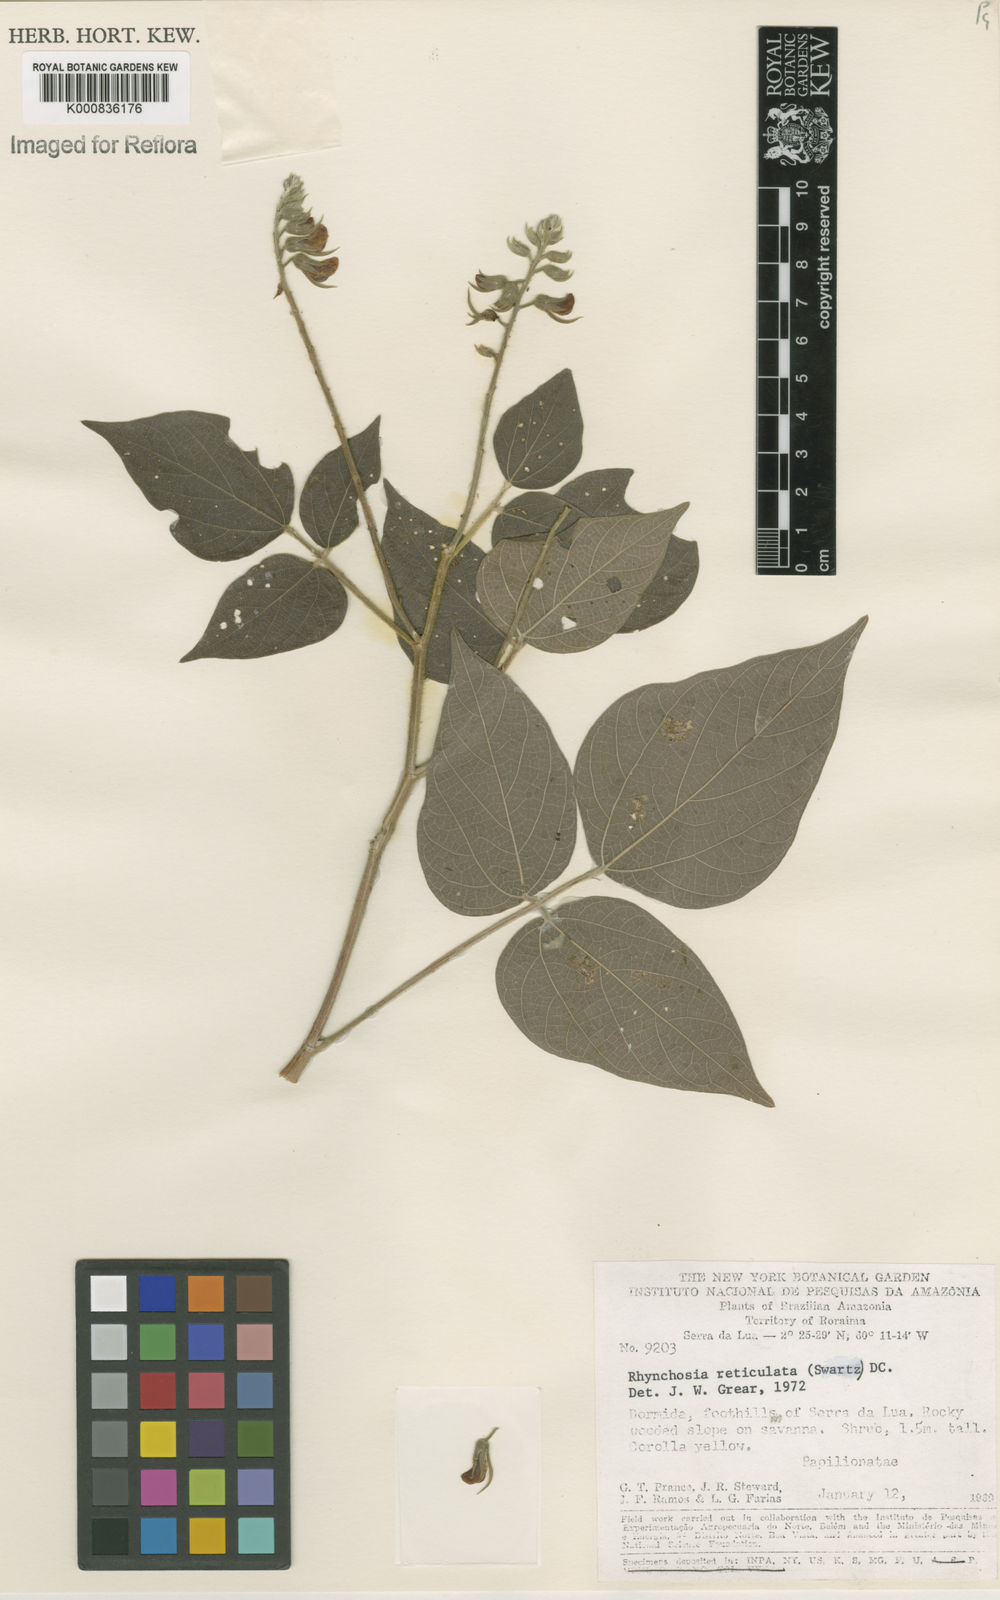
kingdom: Plantae
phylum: Tracheophyta
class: Magnoliopsida
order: Fabales
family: Fabaceae
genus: Rhynchosia
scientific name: Rhynchosia reticulata
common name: Pea withe
